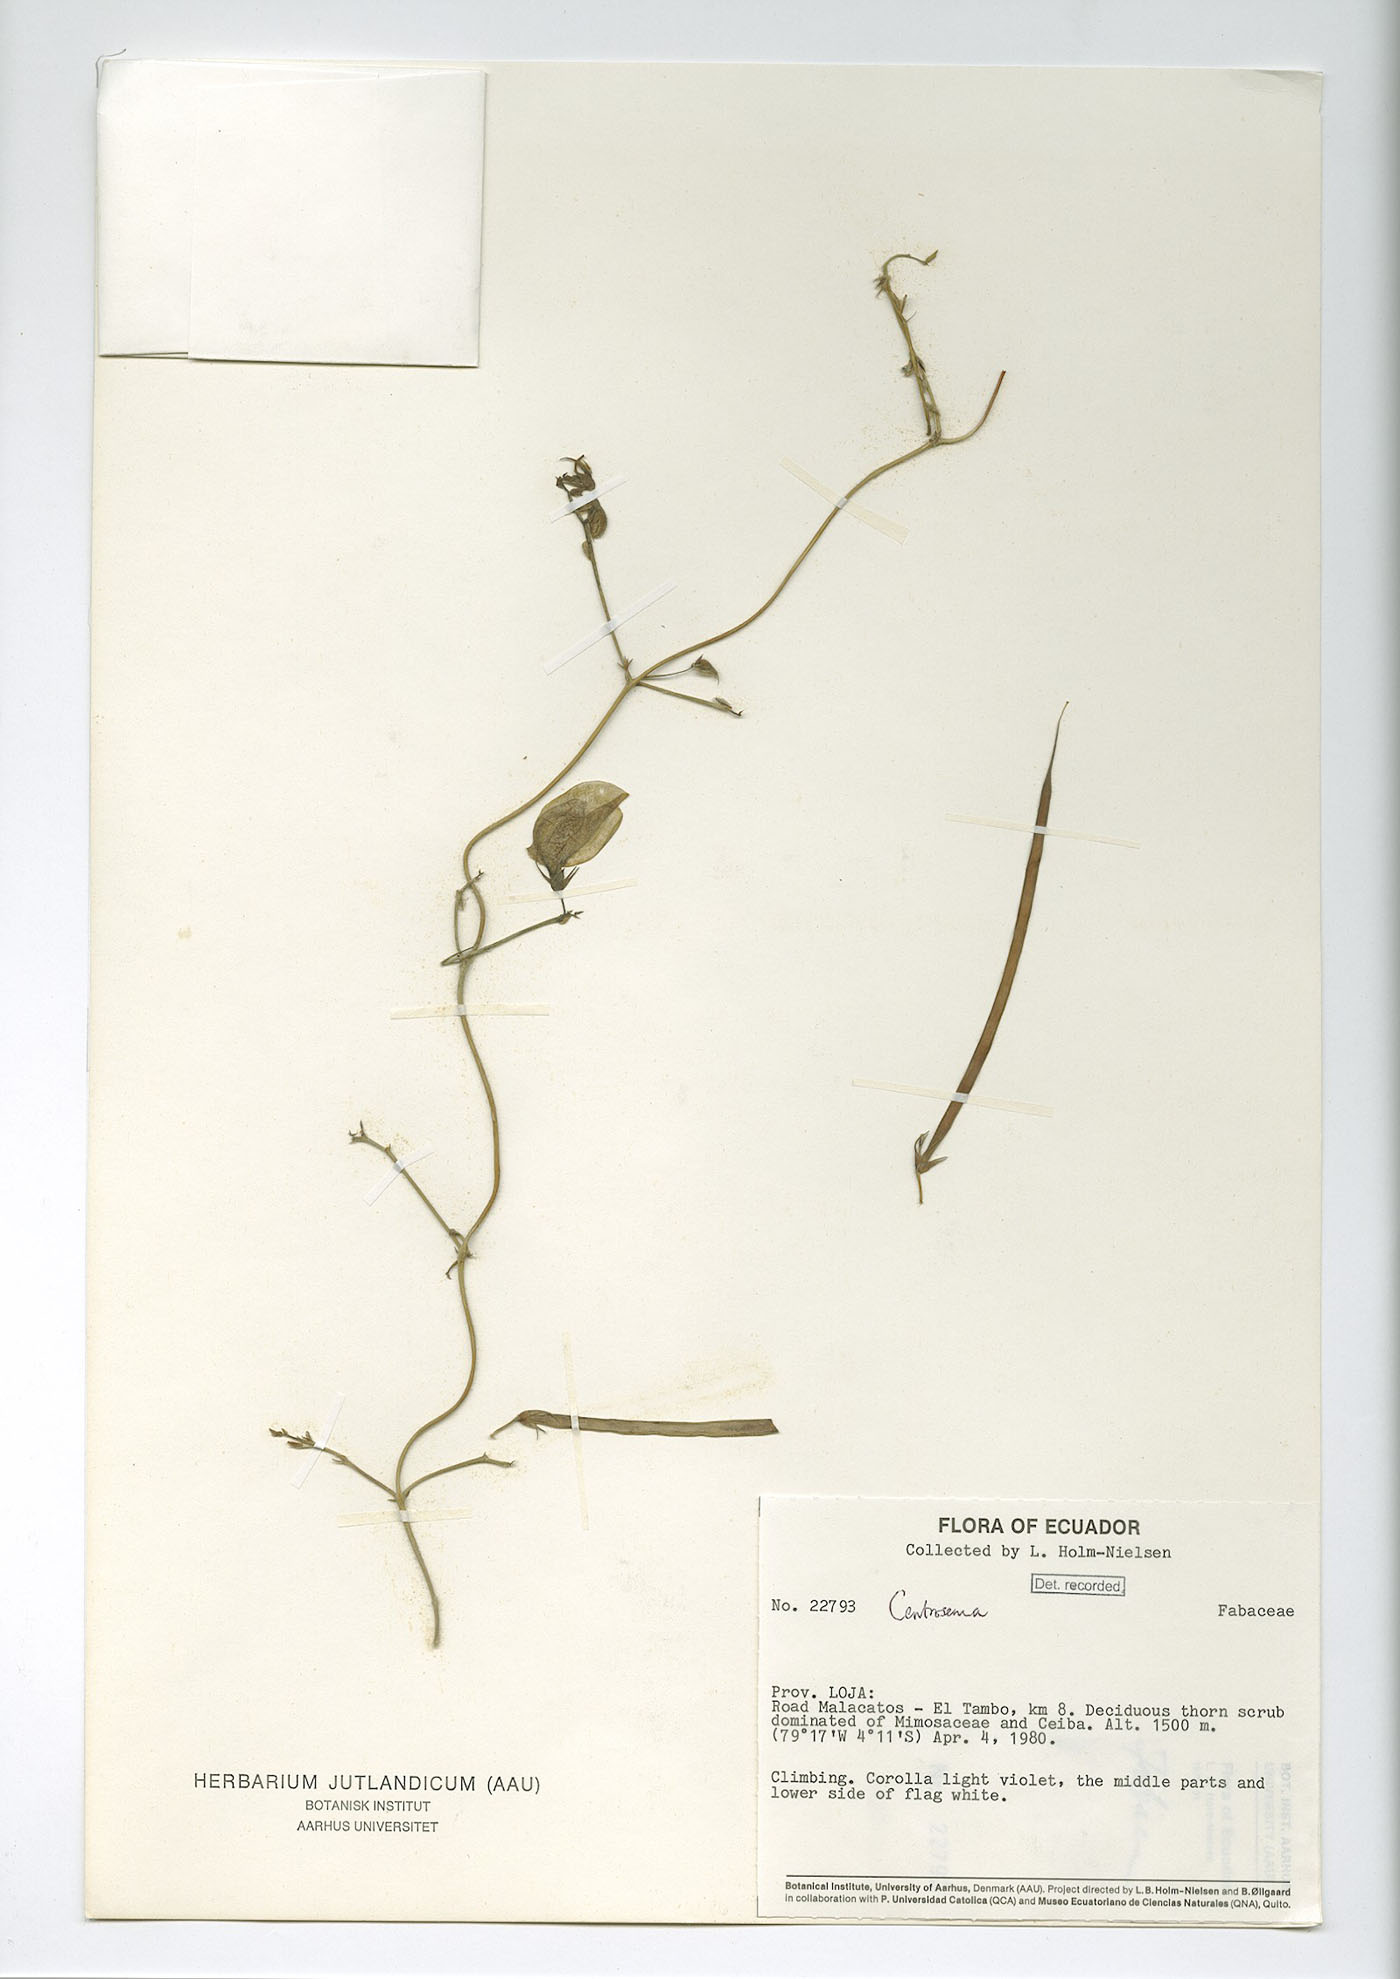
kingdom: Plantae
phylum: Tracheophyta
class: Magnoliopsida
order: Fabales
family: Fabaceae
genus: Centrosema
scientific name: Centrosema virginianum
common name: Butterfly-pea
